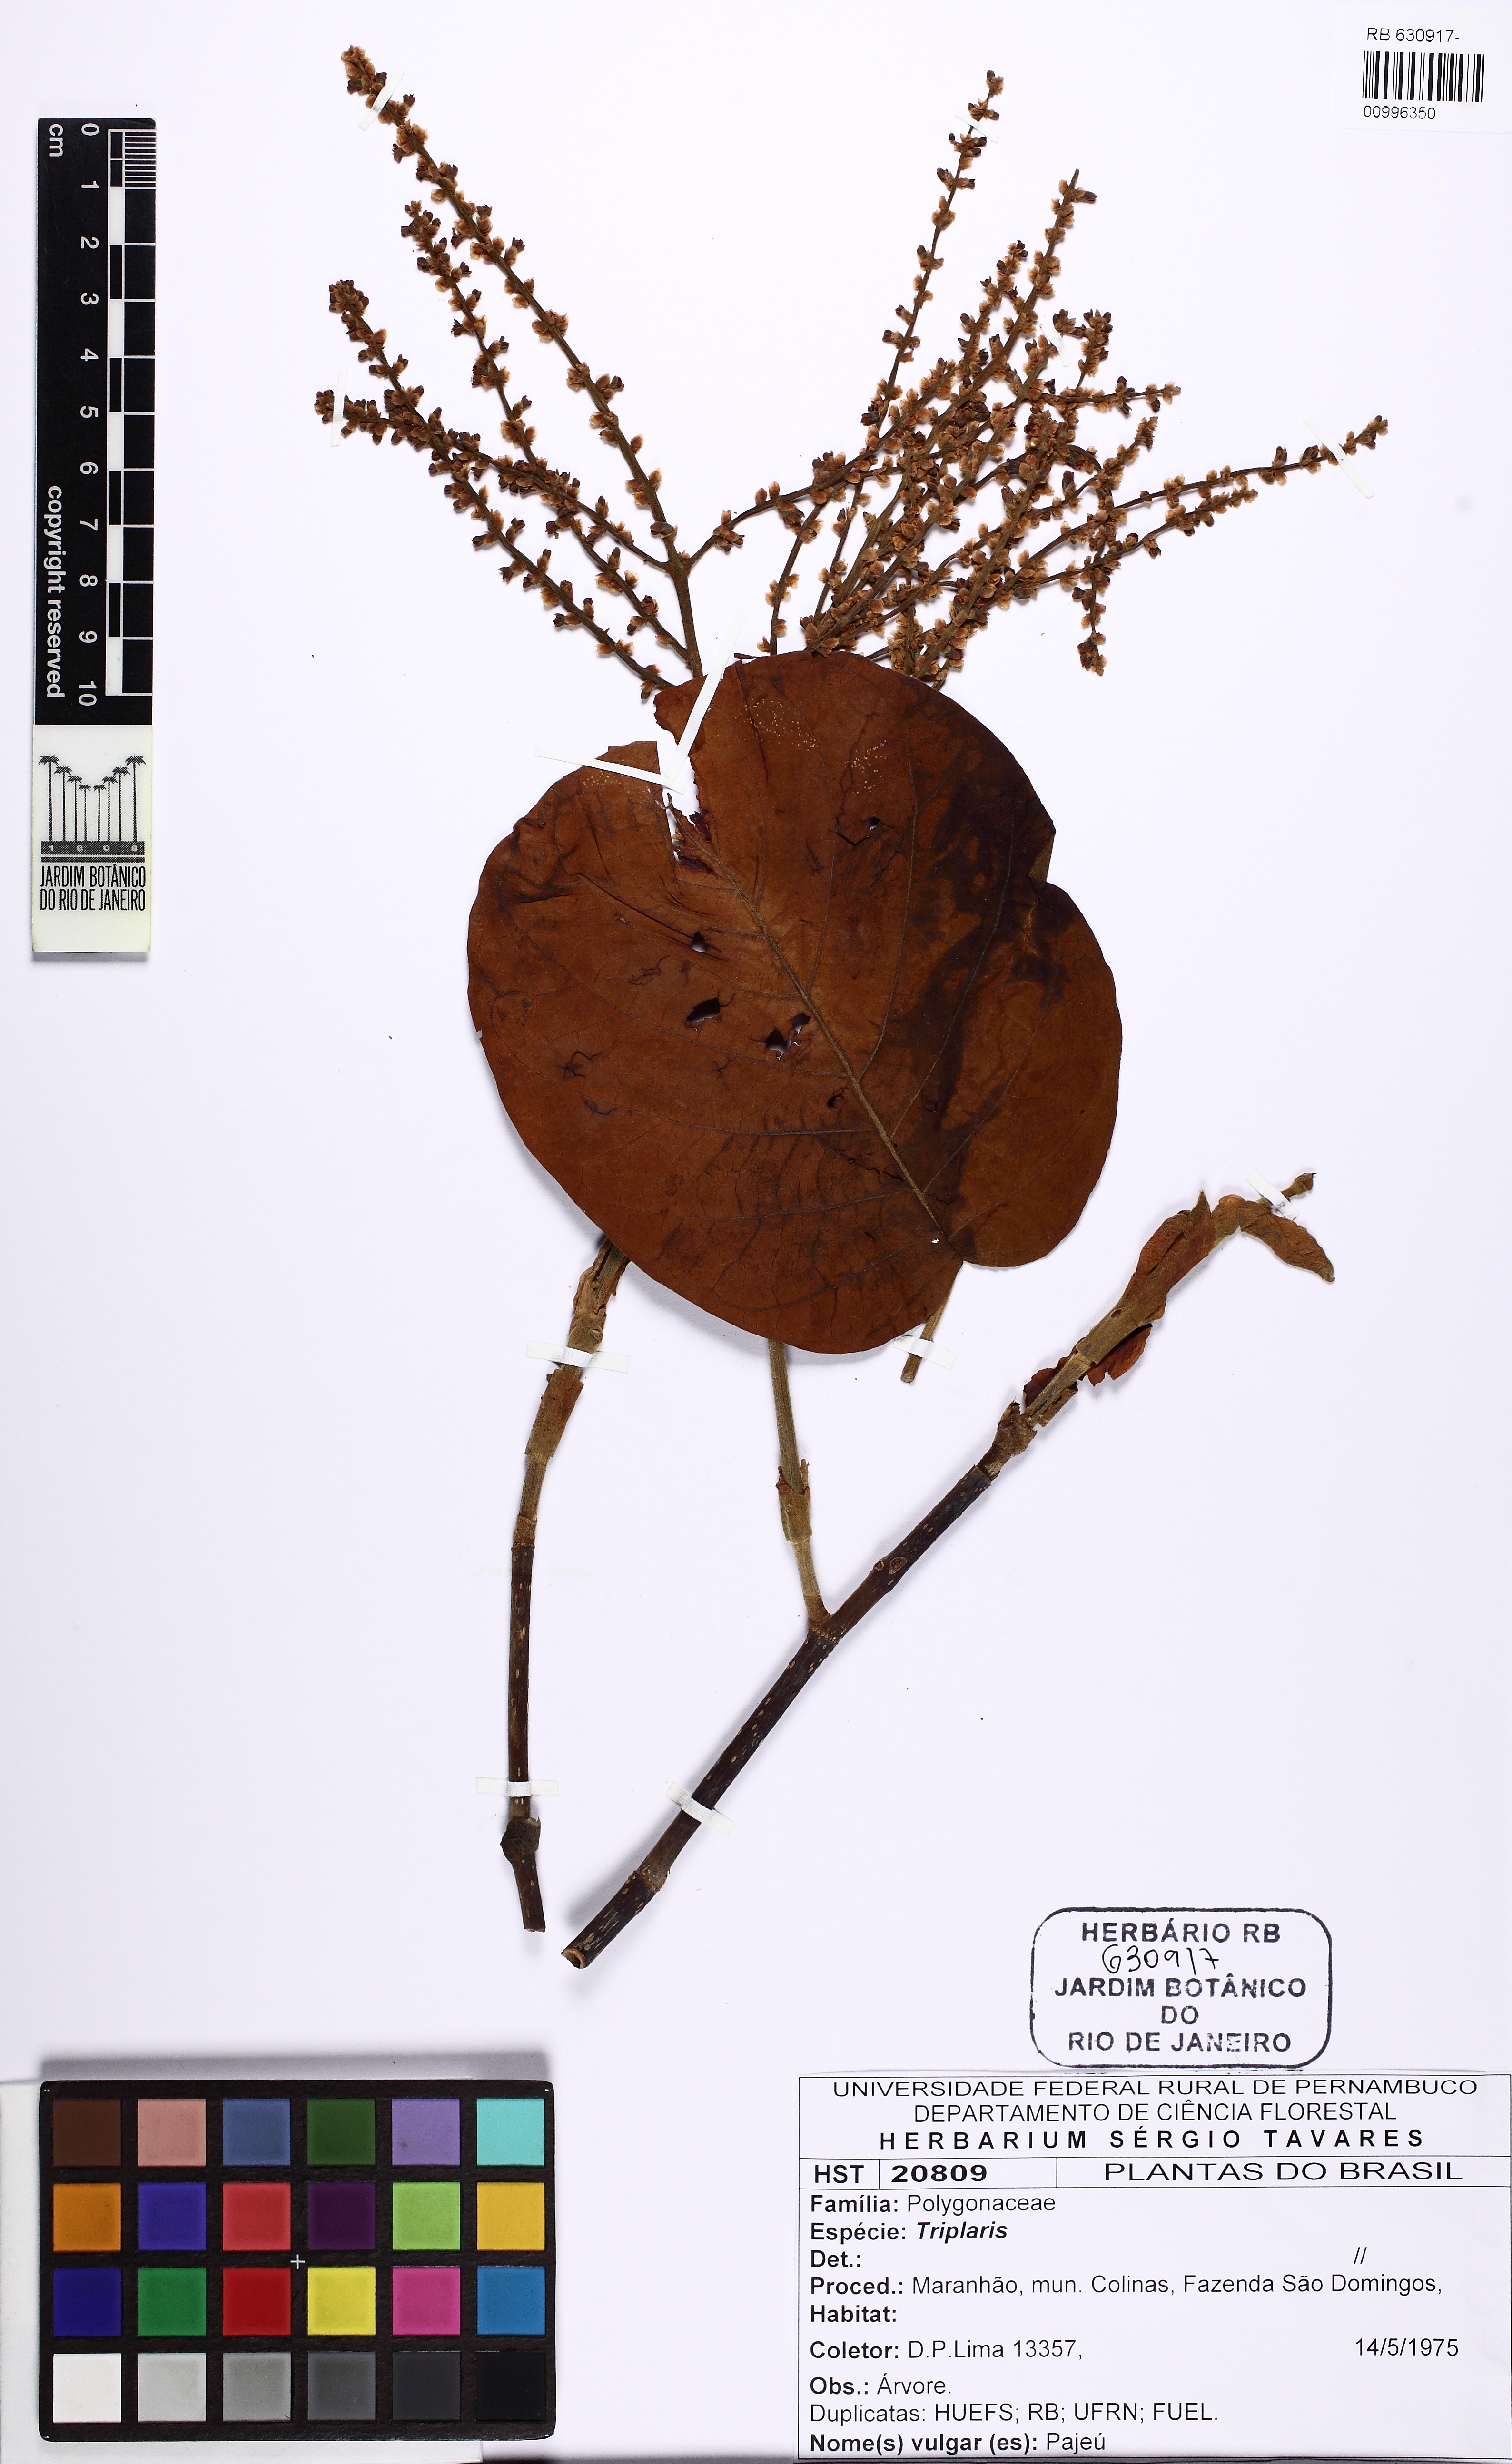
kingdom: Plantae
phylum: Tracheophyta
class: Magnoliopsida
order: Caryophyllales
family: Polygonaceae
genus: Triplaris
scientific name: Triplaris
